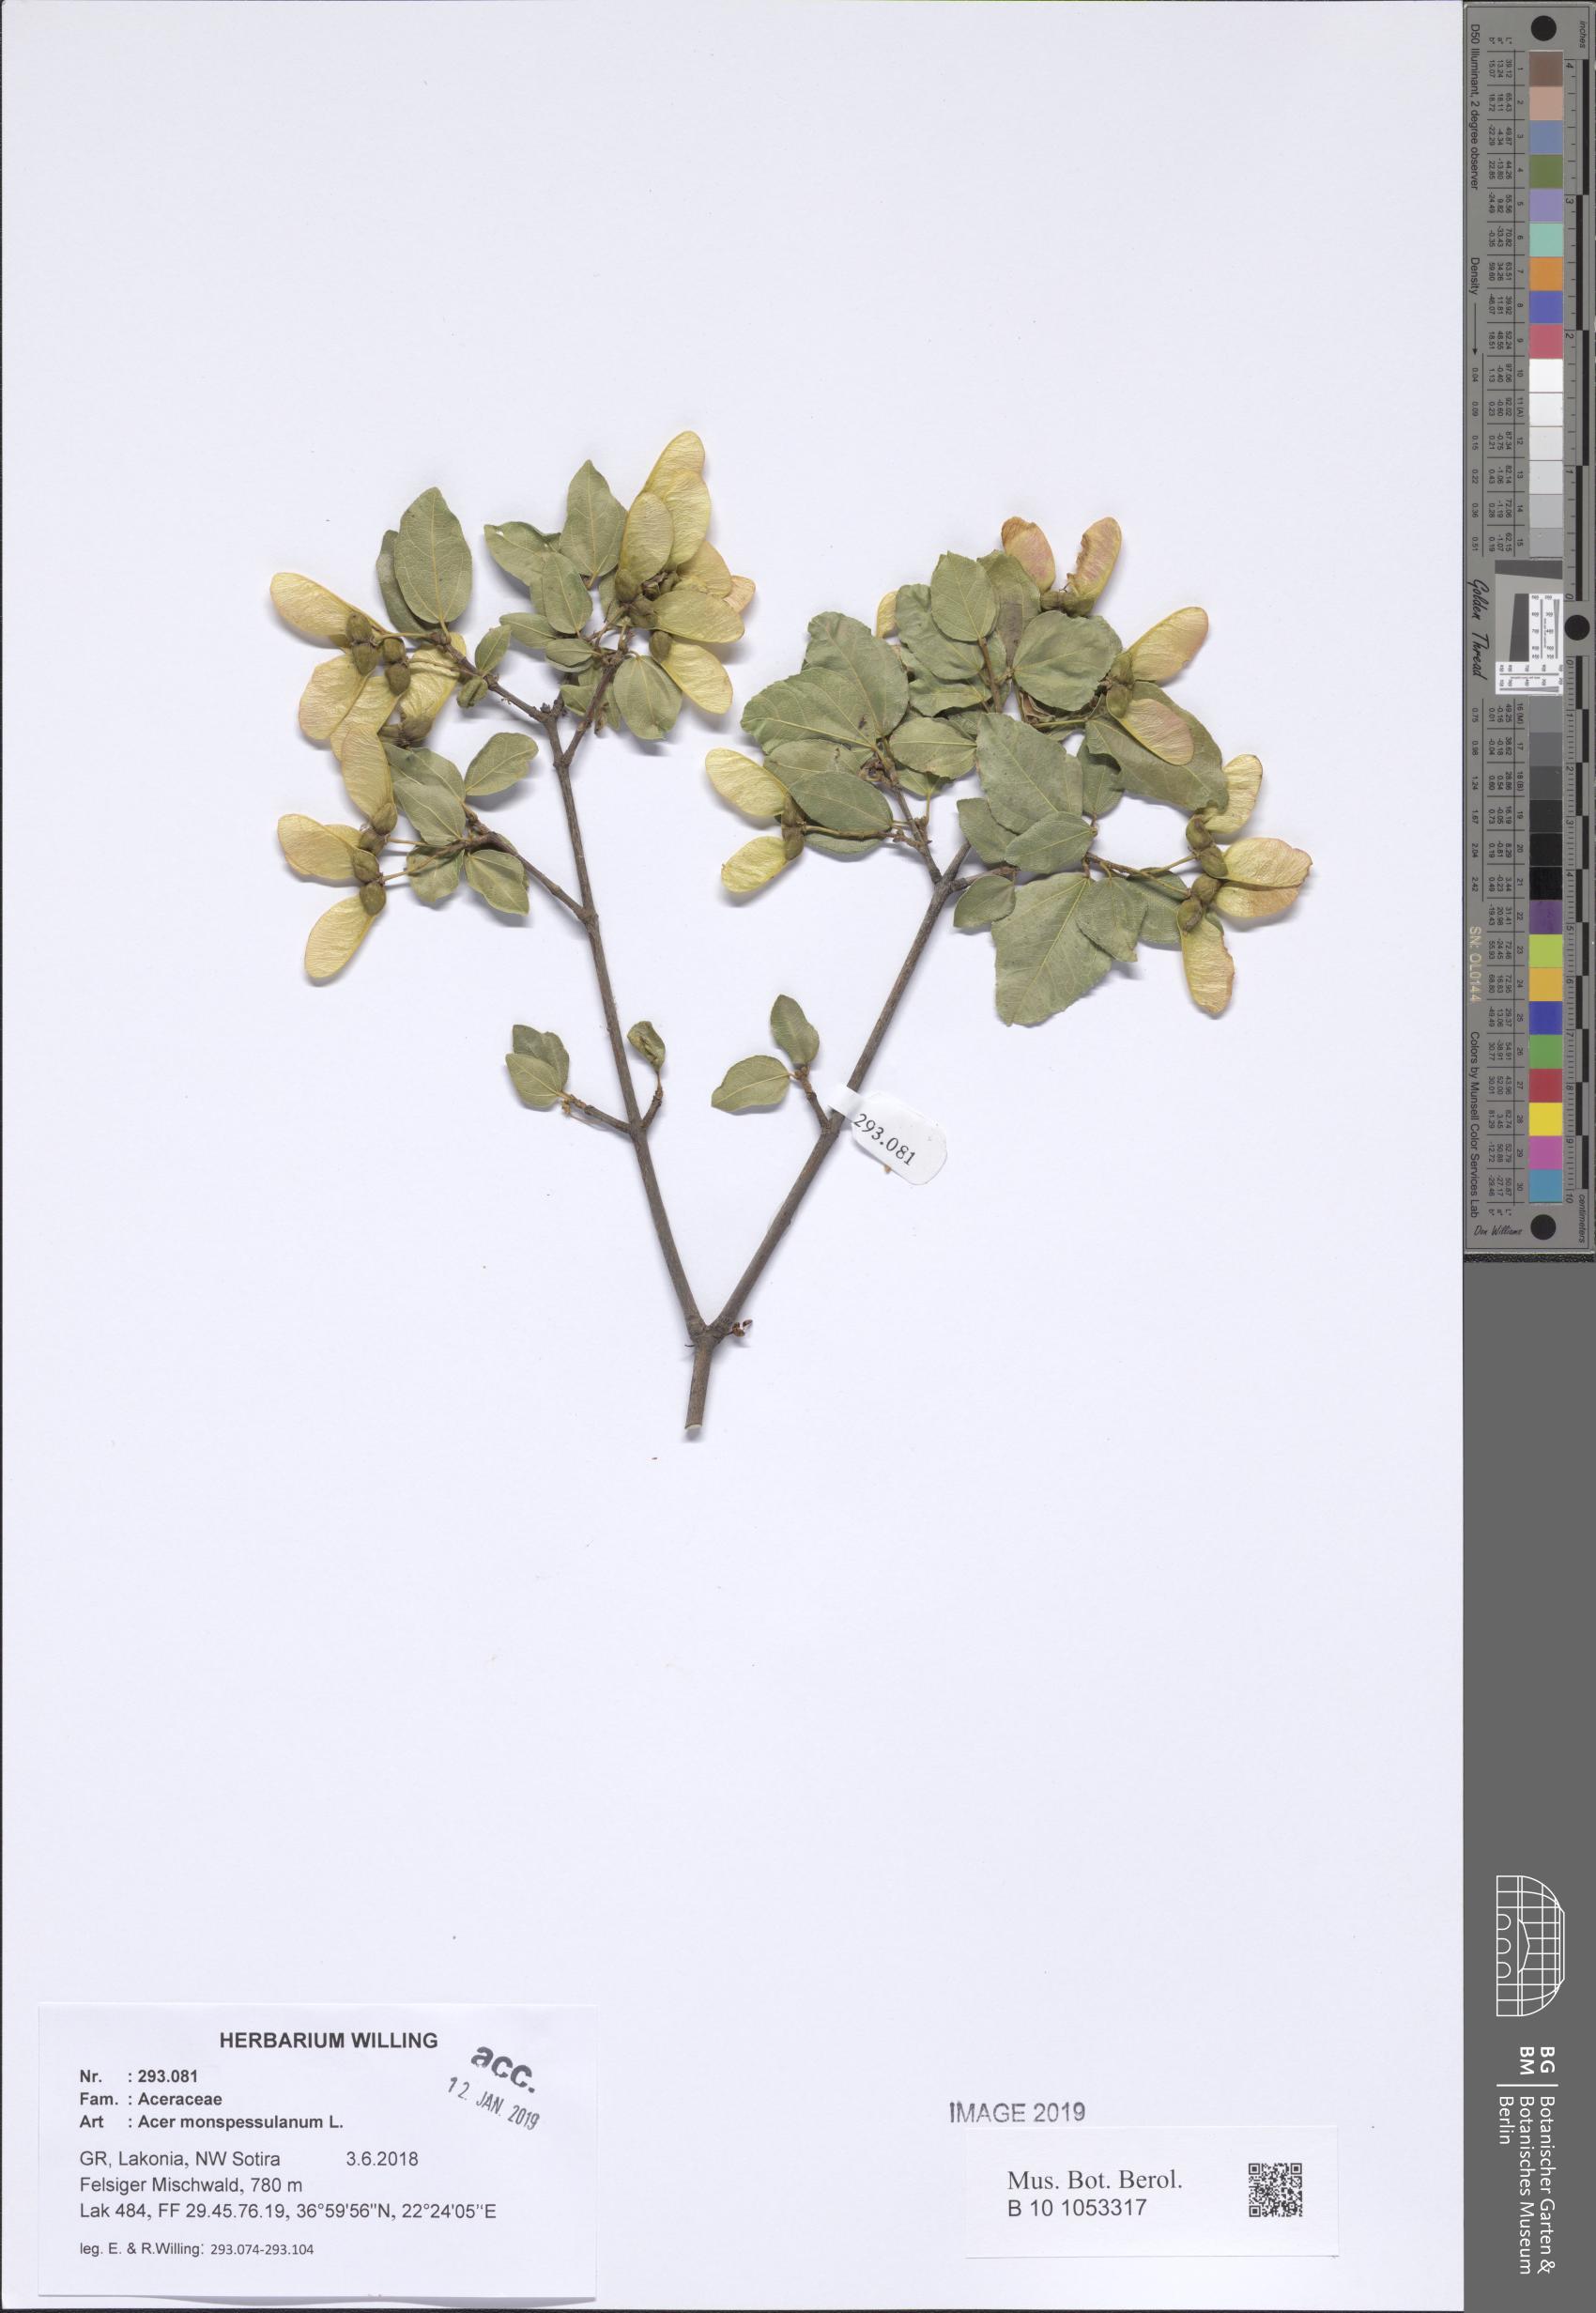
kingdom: Plantae
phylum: Tracheophyta
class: Magnoliopsida
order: Sapindales
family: Sapindaceae
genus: Acer
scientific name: Acer monspessulanum
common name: Montpellier maple
